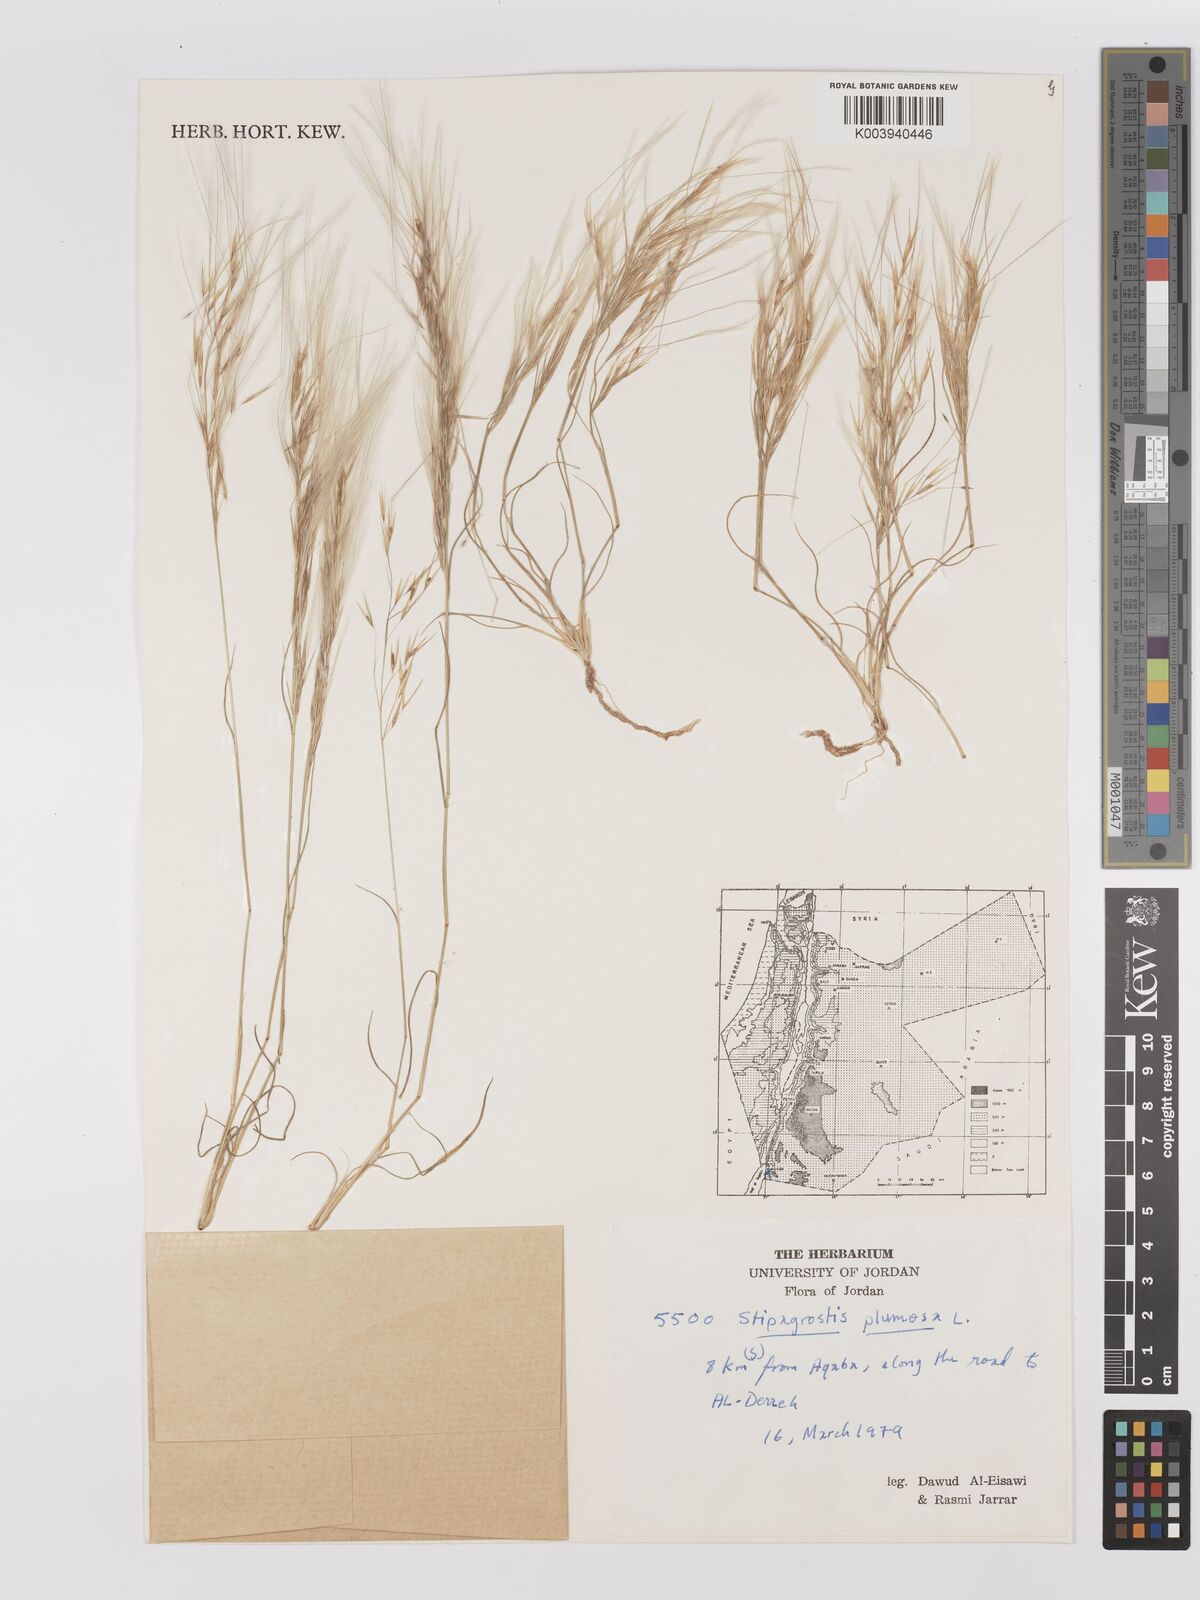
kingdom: Plantae
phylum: Tracheophyta
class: Liliopsida
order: Poales
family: Poaceae
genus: Stipagrostis
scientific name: Stipagrostis plumosa
